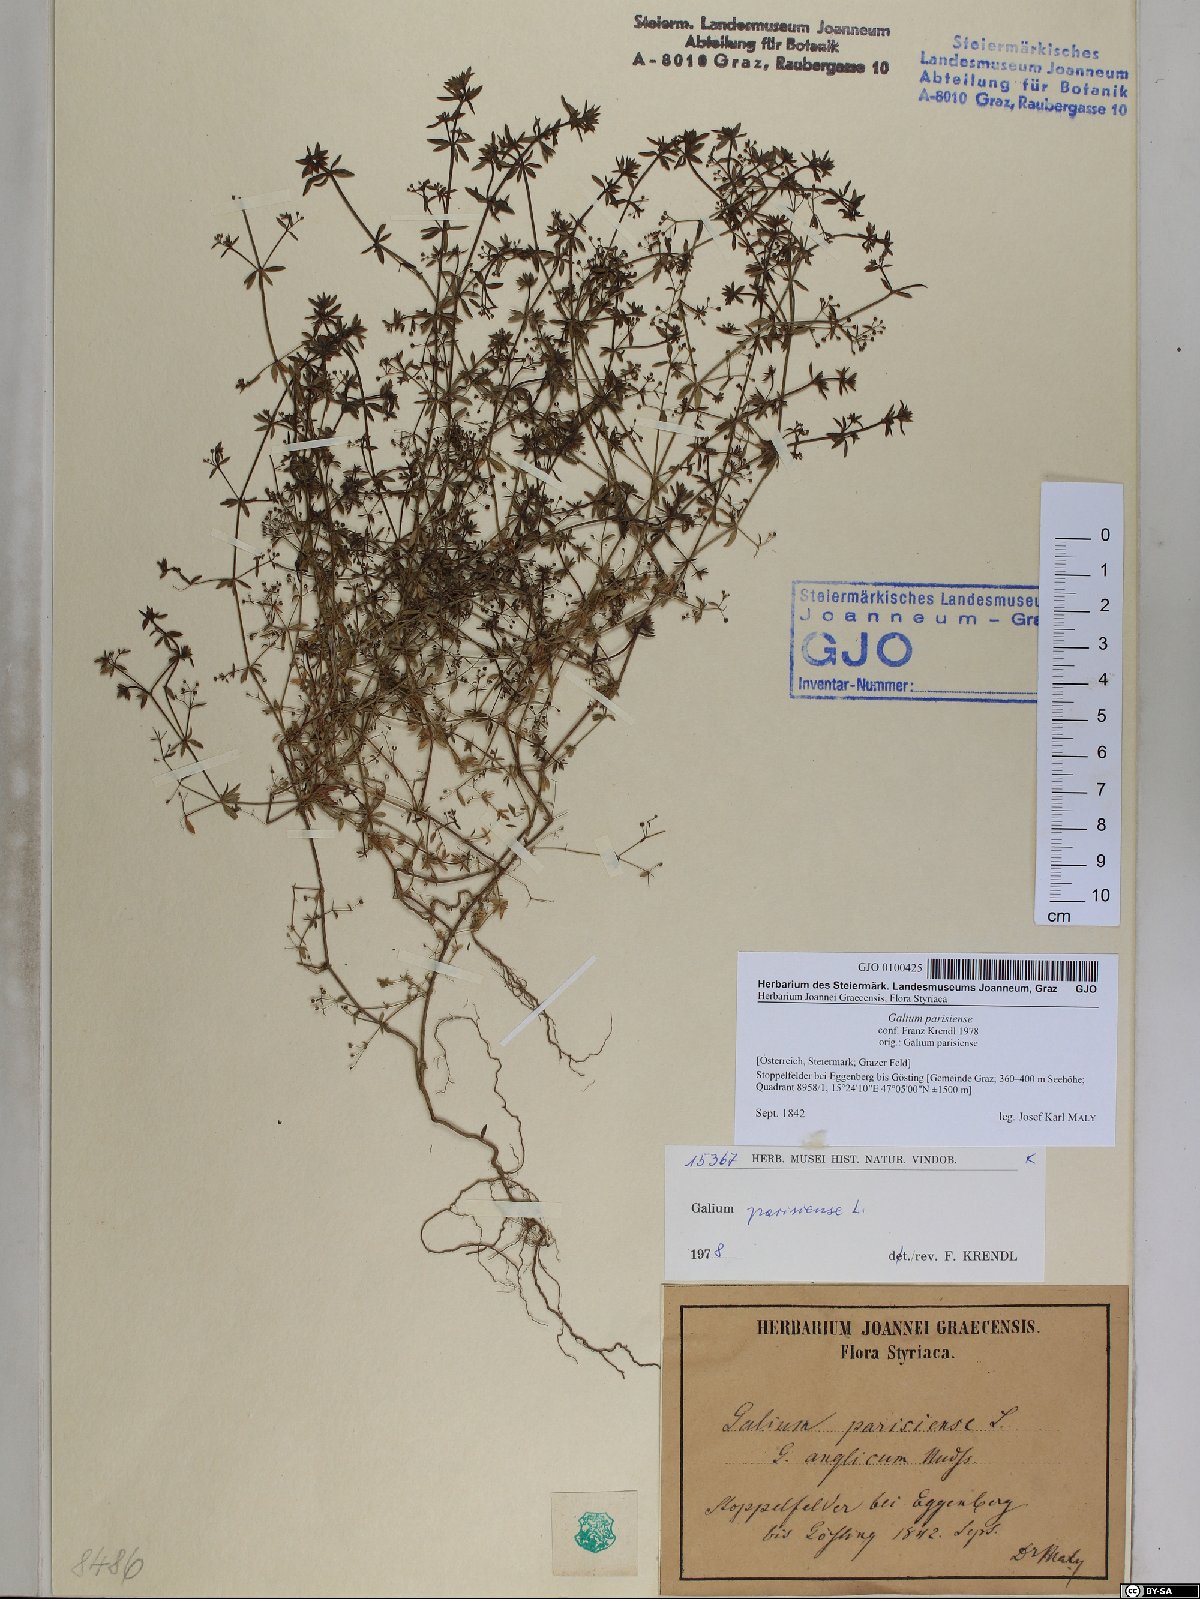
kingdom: Plantae
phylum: Tracheophyta
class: Magnoliopsida
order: Gentianales
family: Rubiaceae
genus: Galium
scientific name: Galium parisiense
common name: Wall bedstraw
